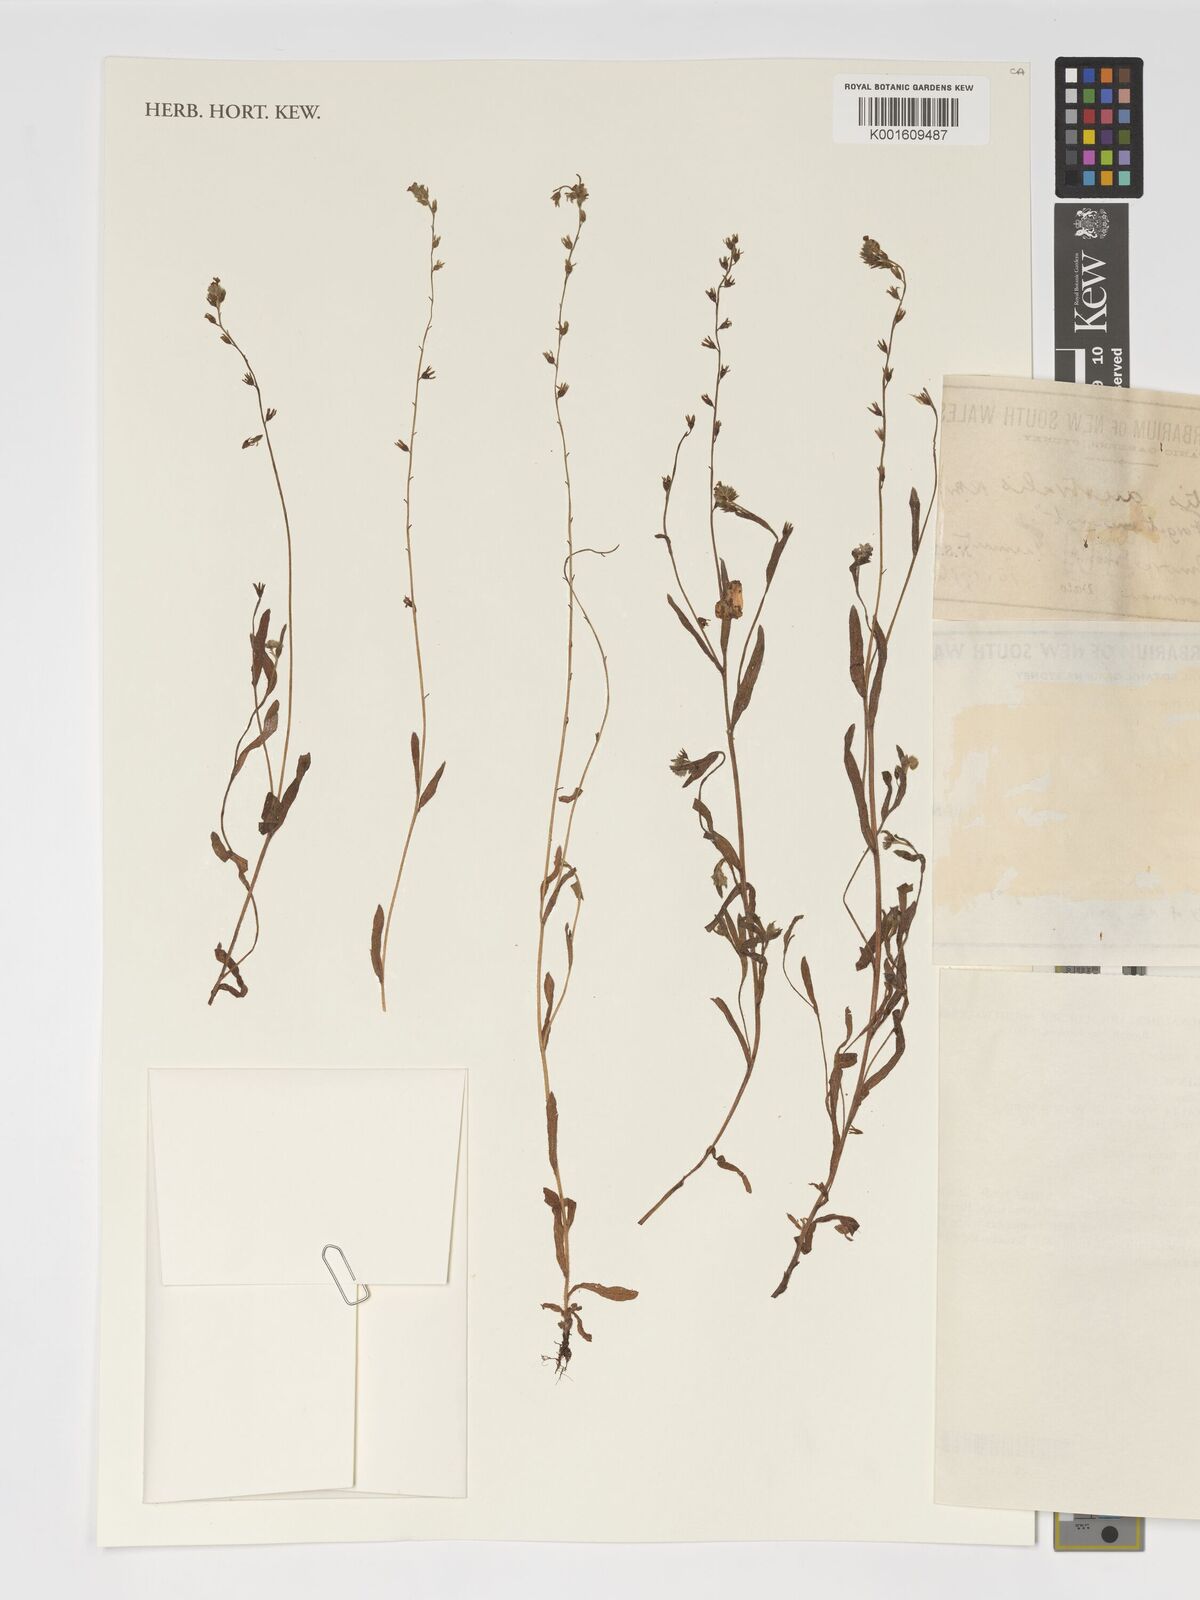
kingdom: Plantae
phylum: Tracheophyta
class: Magnoliopsida
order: Boraginales
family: Boraginaceae
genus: Myosotis
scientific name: Myosotis discolor
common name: Changing forget-me-not
